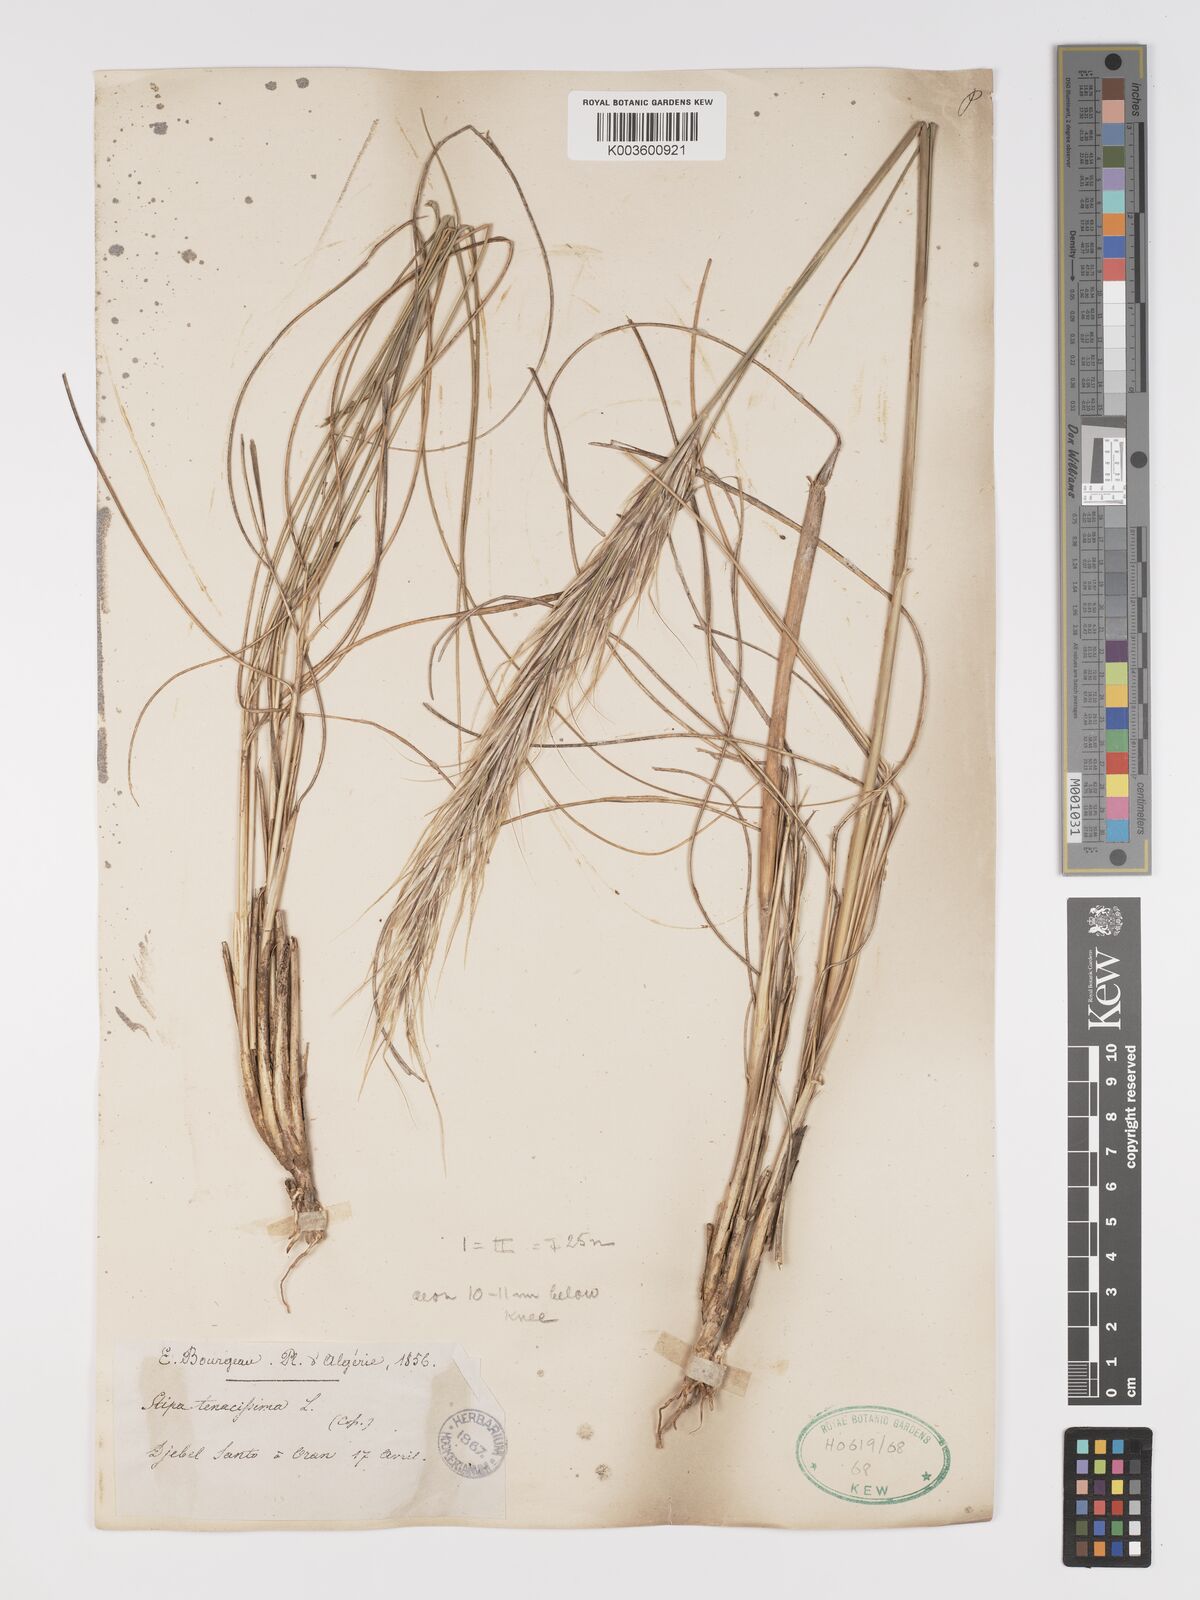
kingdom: Plantae
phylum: Tracheophyta
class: Liliopsida
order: Poales
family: Poaceae
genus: Macrochloa
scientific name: Macrochloa tenacissima
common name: Alfa grass
